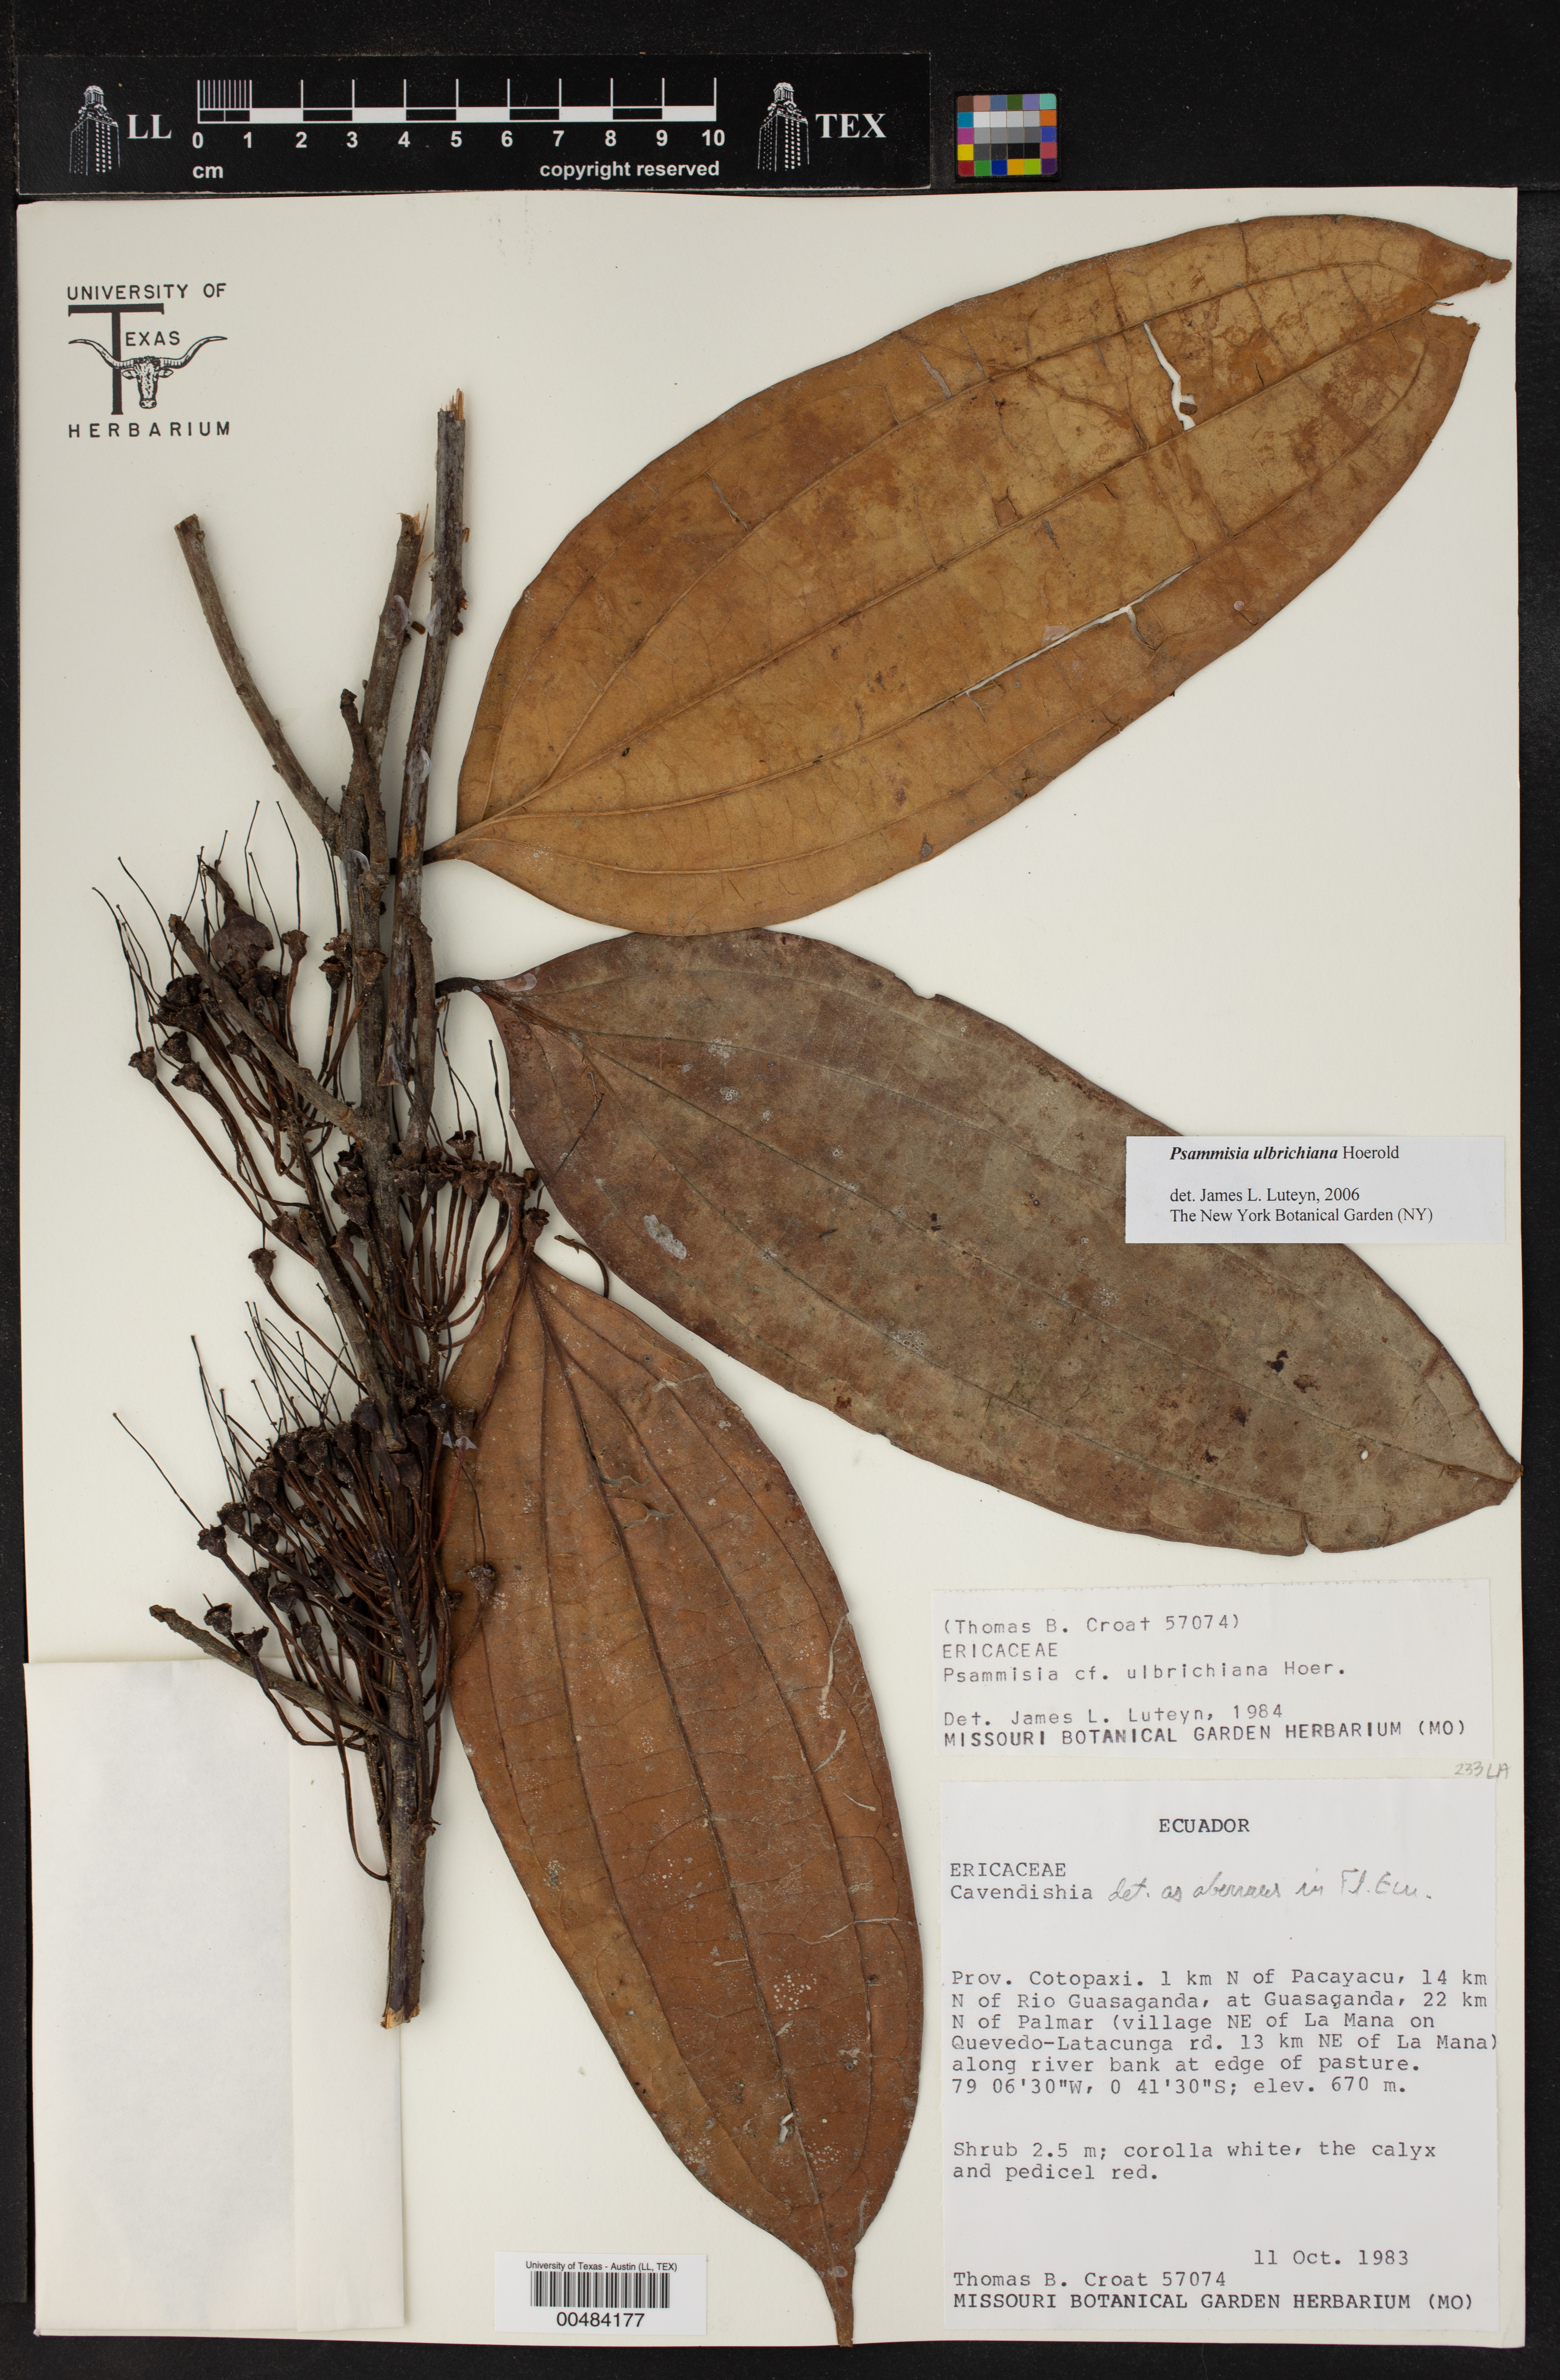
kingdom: Plantae
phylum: Tracheophyta
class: Magnoliopsida
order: Ericales
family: Ericaceae
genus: Psammisia
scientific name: Psammisia ulbrichiana
